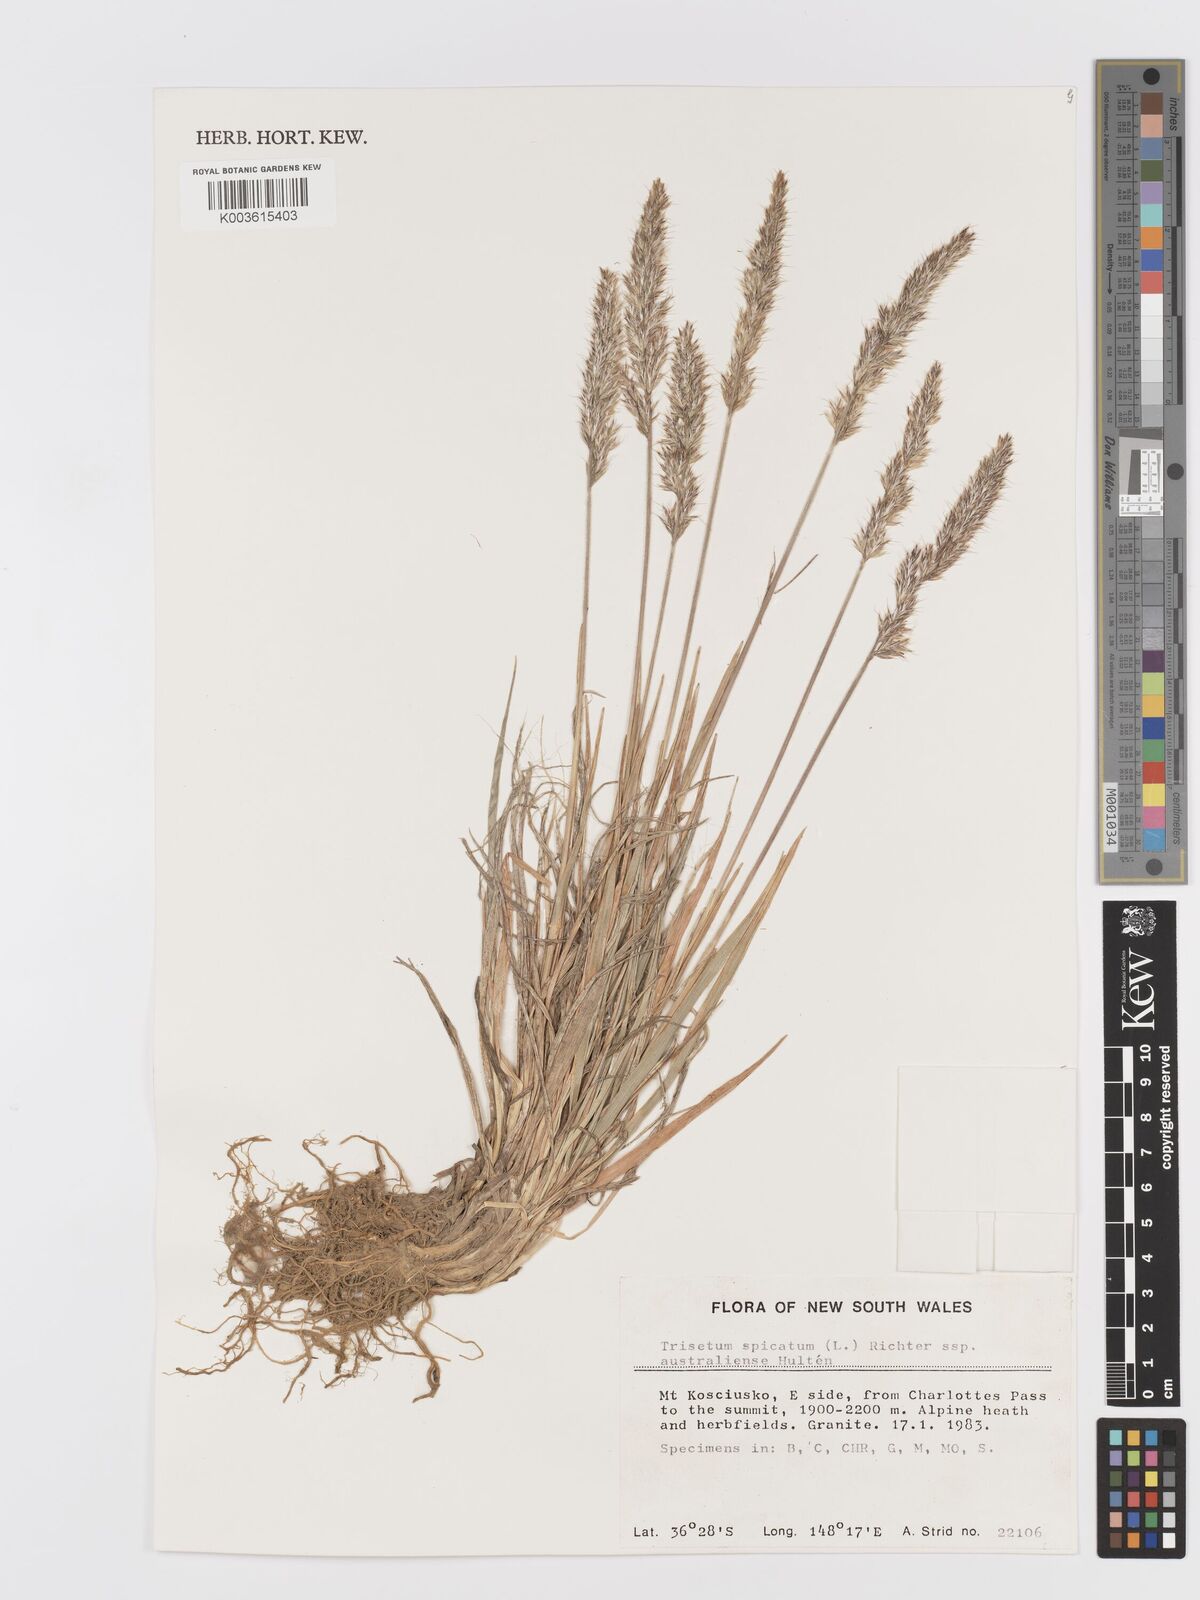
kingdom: Plantae
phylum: Tracheophyta
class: Liliopsida
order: Poales
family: Poaceae
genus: Koeleria
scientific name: Koeleria spicata
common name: Mountain trisetum
